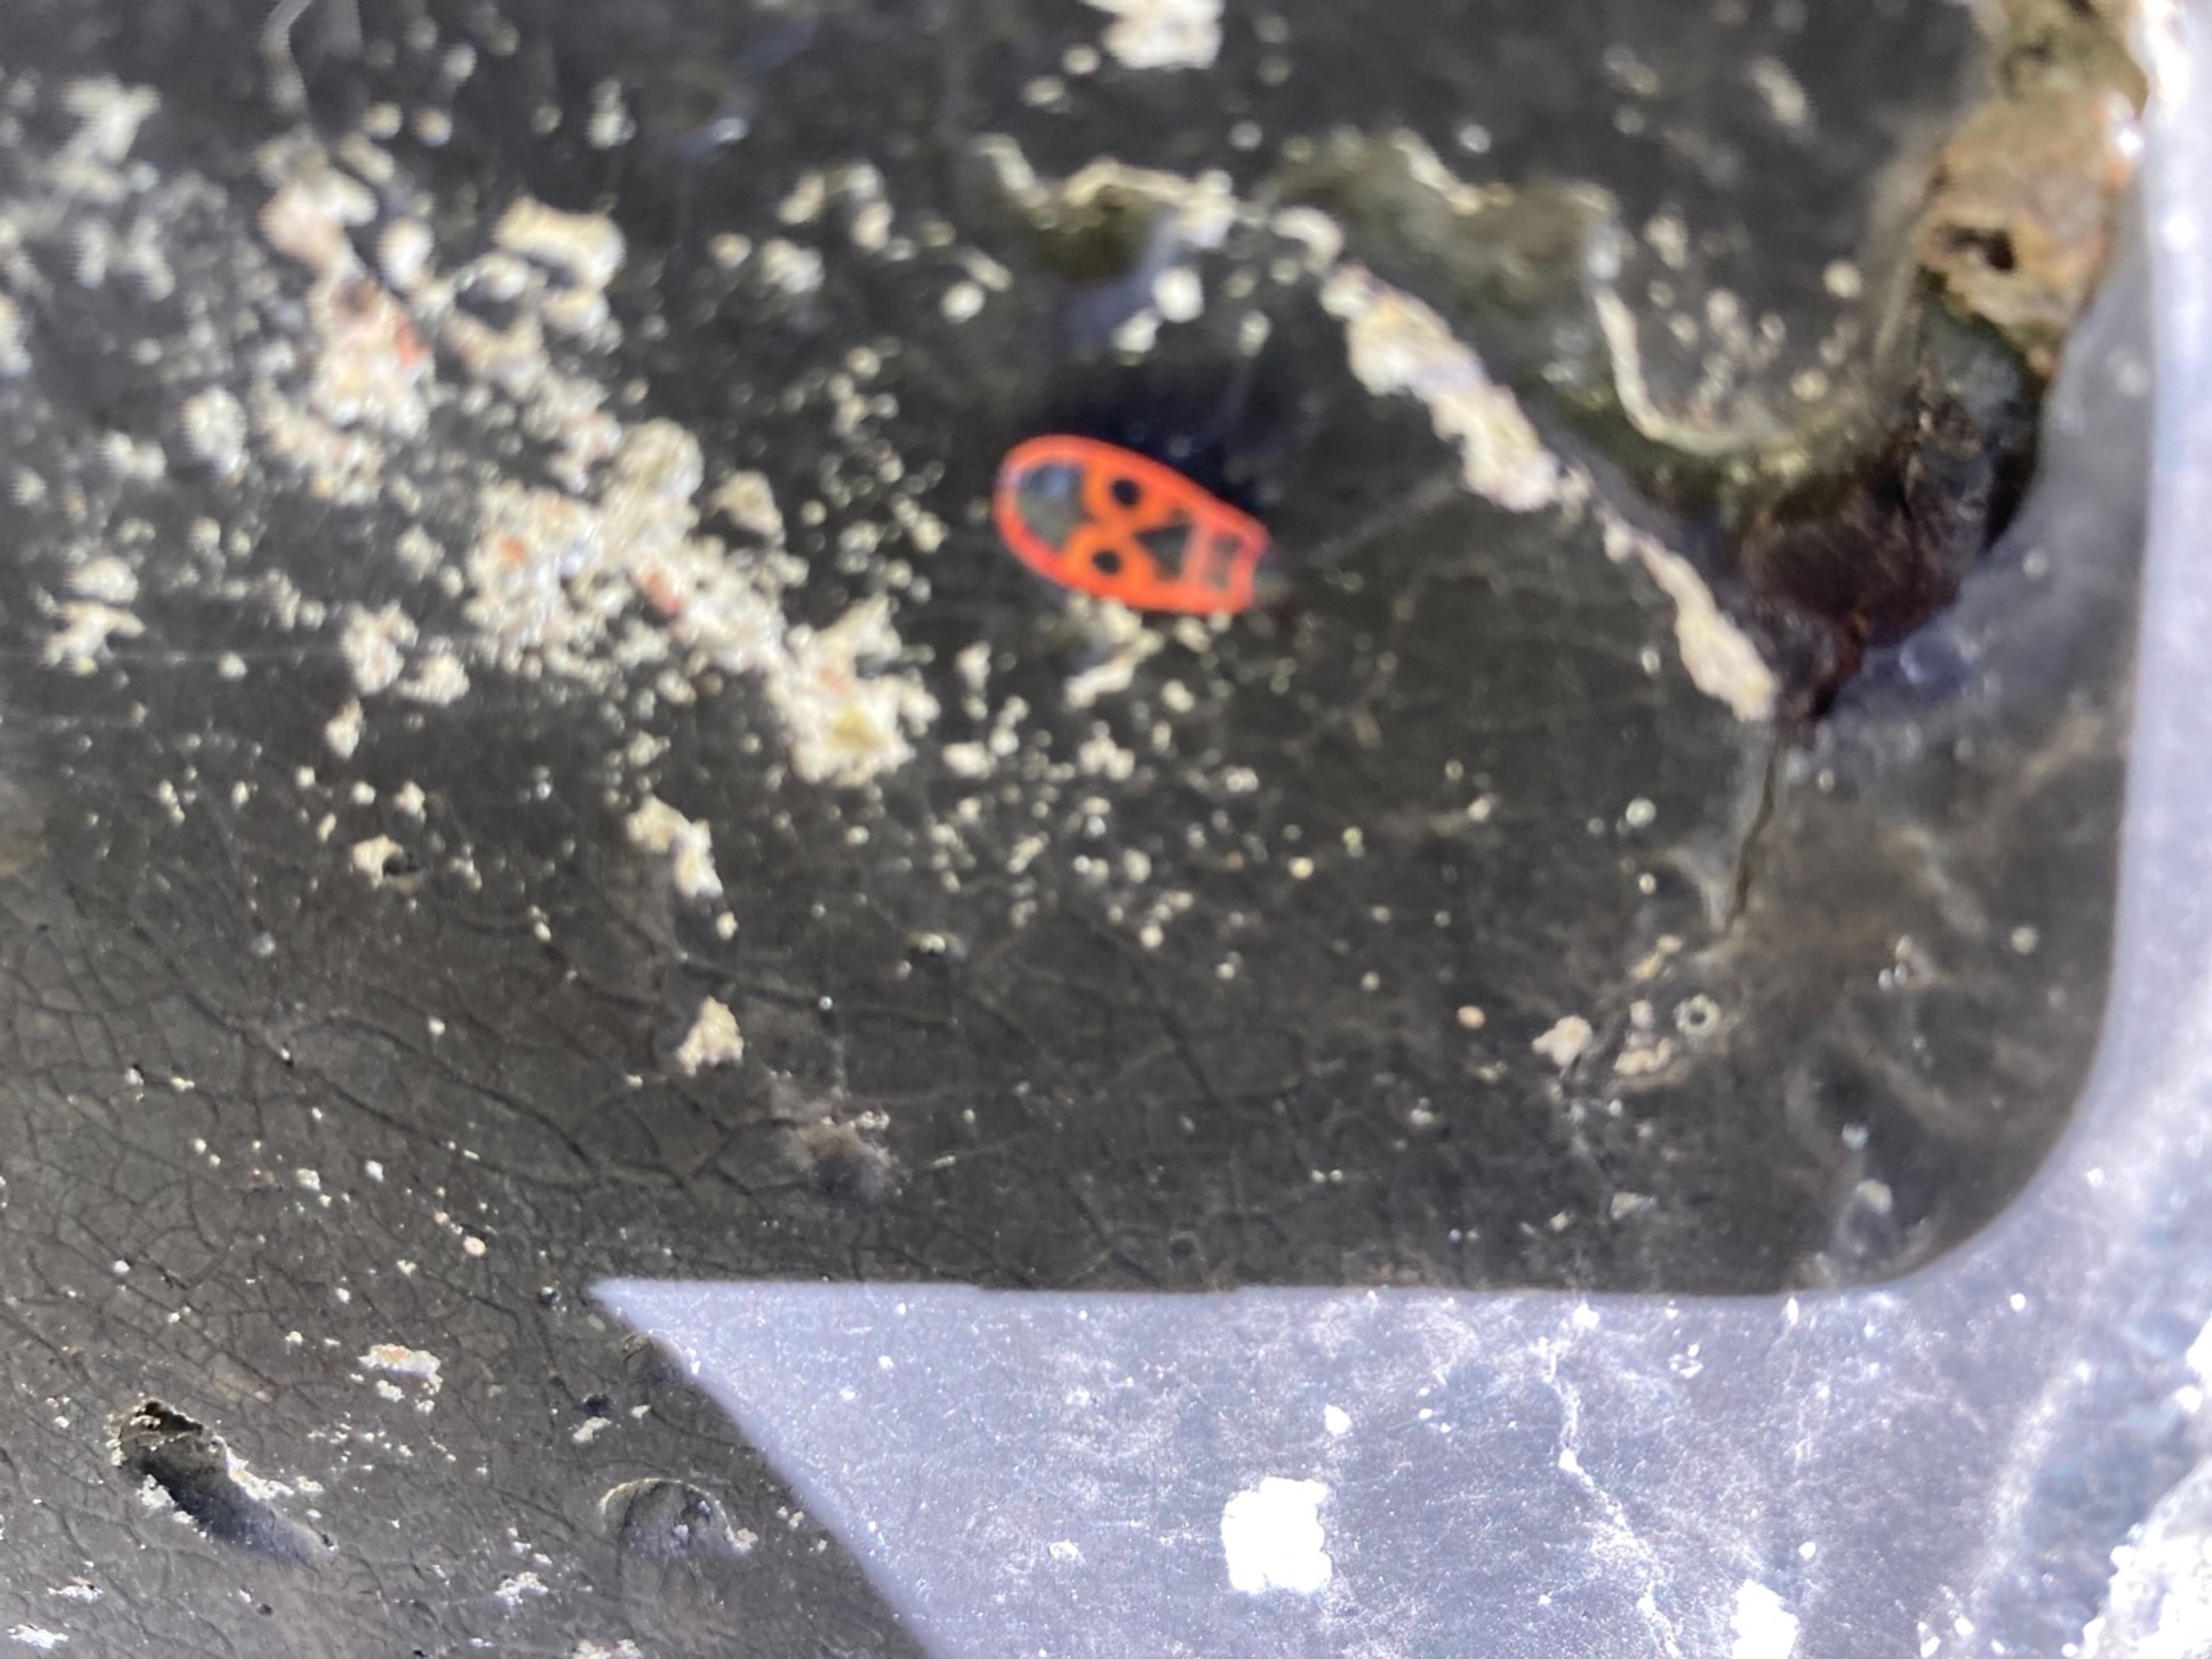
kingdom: Animalia
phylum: Arthropoda
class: Insecta
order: Hemiptera
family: Pyrrhocoridae
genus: Pyrrhocoris
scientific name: Pyrrhocoris apterus
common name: Ildtæge
